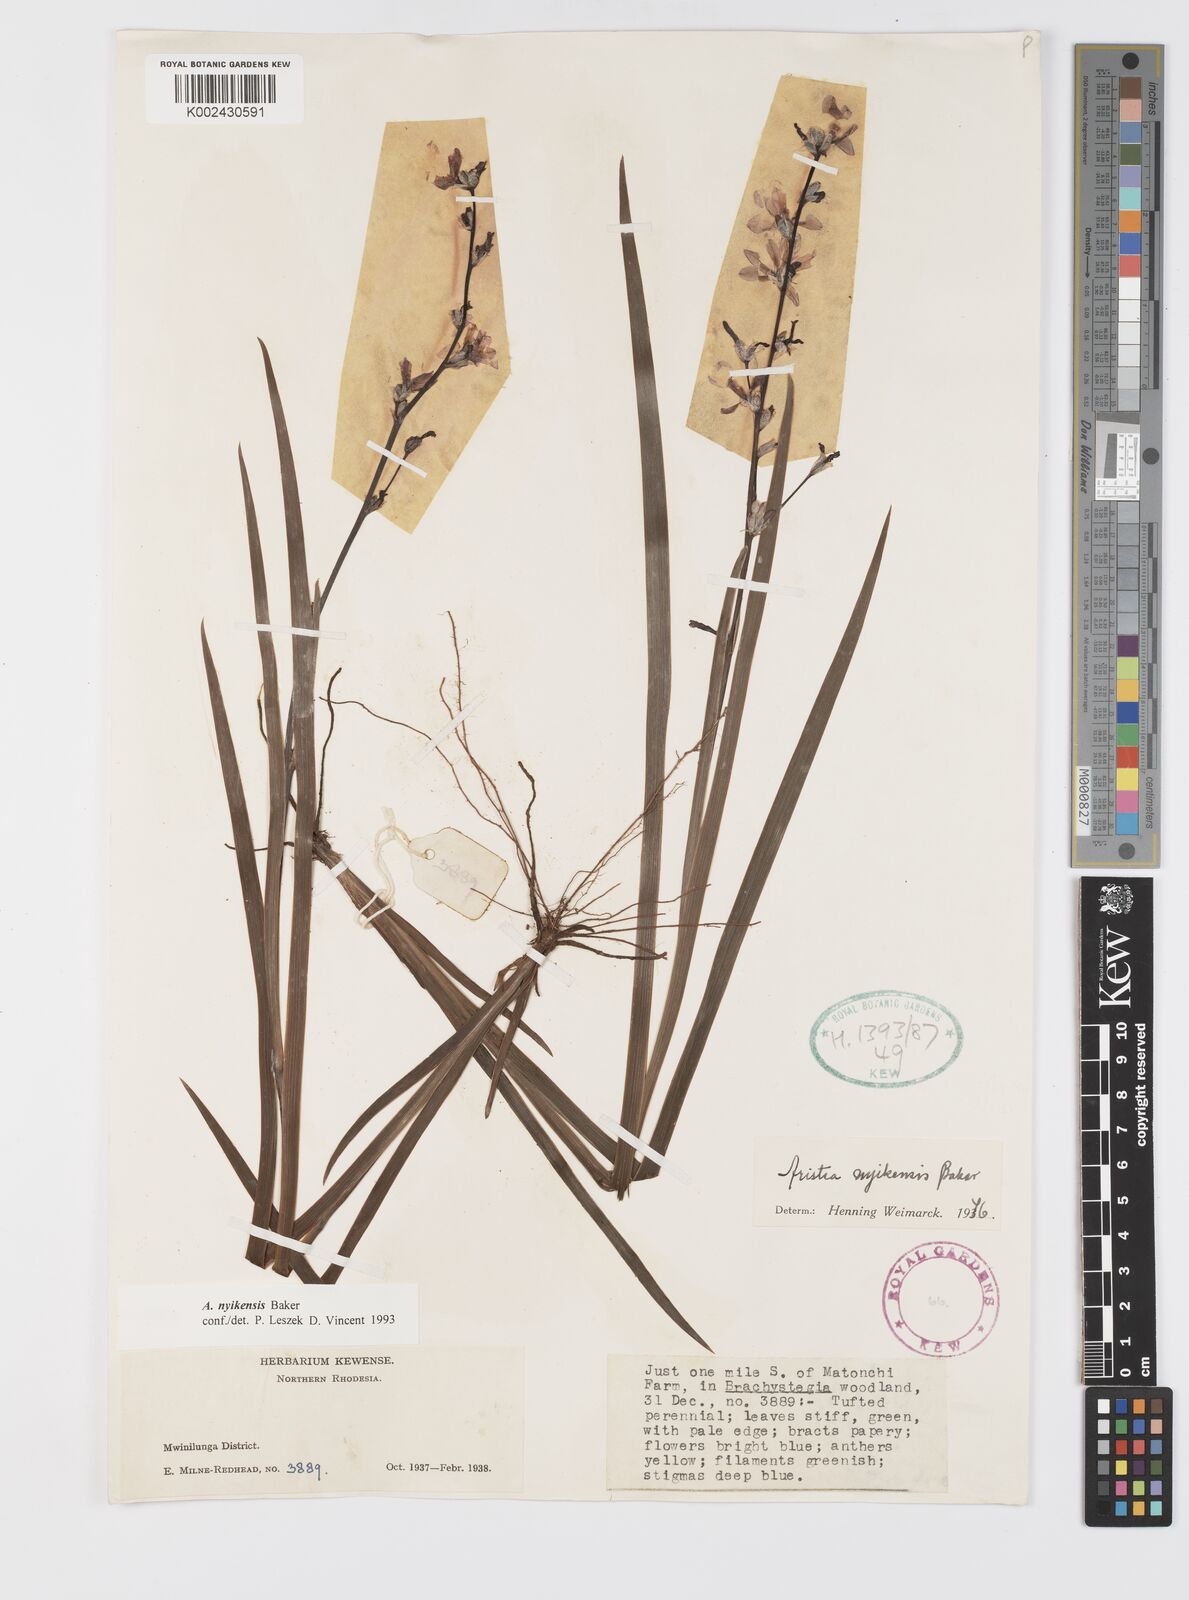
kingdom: Plantae
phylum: Tracheophyta
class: Liliopsida
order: Asparagales
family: Iridaceae
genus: Aristea
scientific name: Aristea nyikensis
